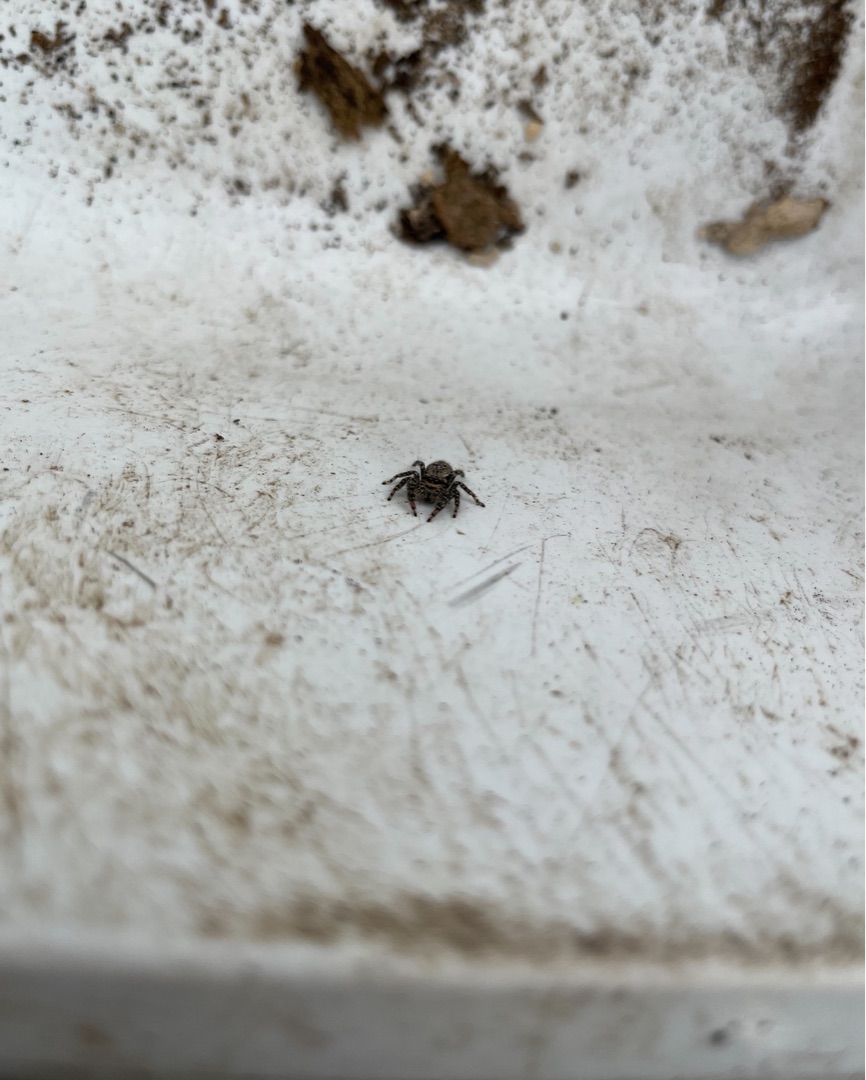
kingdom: Animalia
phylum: Arthropoda
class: Arachnida
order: Araneae
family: Salticidae
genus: Marpissa
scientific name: Marpissa muscosa
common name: Stor springedderkop
